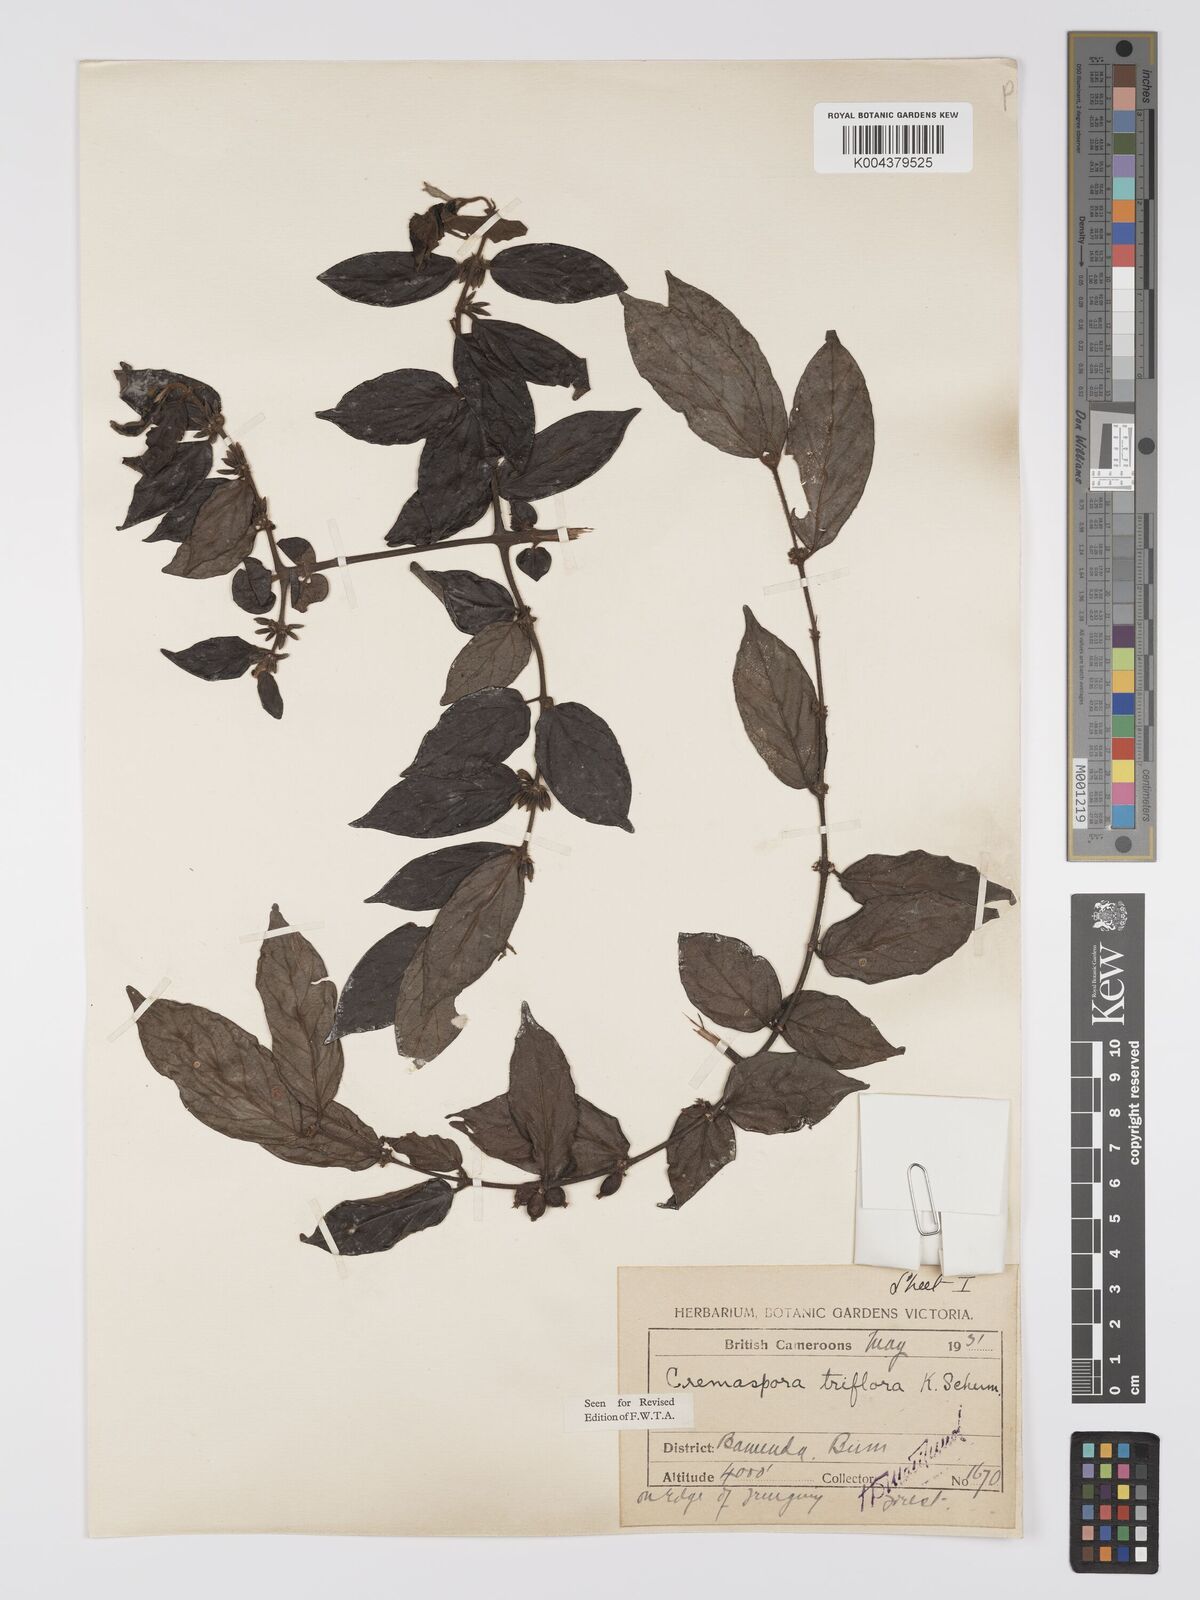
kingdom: Plantae
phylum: Tracheophyta
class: Magnoliopsida
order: Gentianales
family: Rubiaceae
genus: Cremaspora
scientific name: Cremaspora triflora
